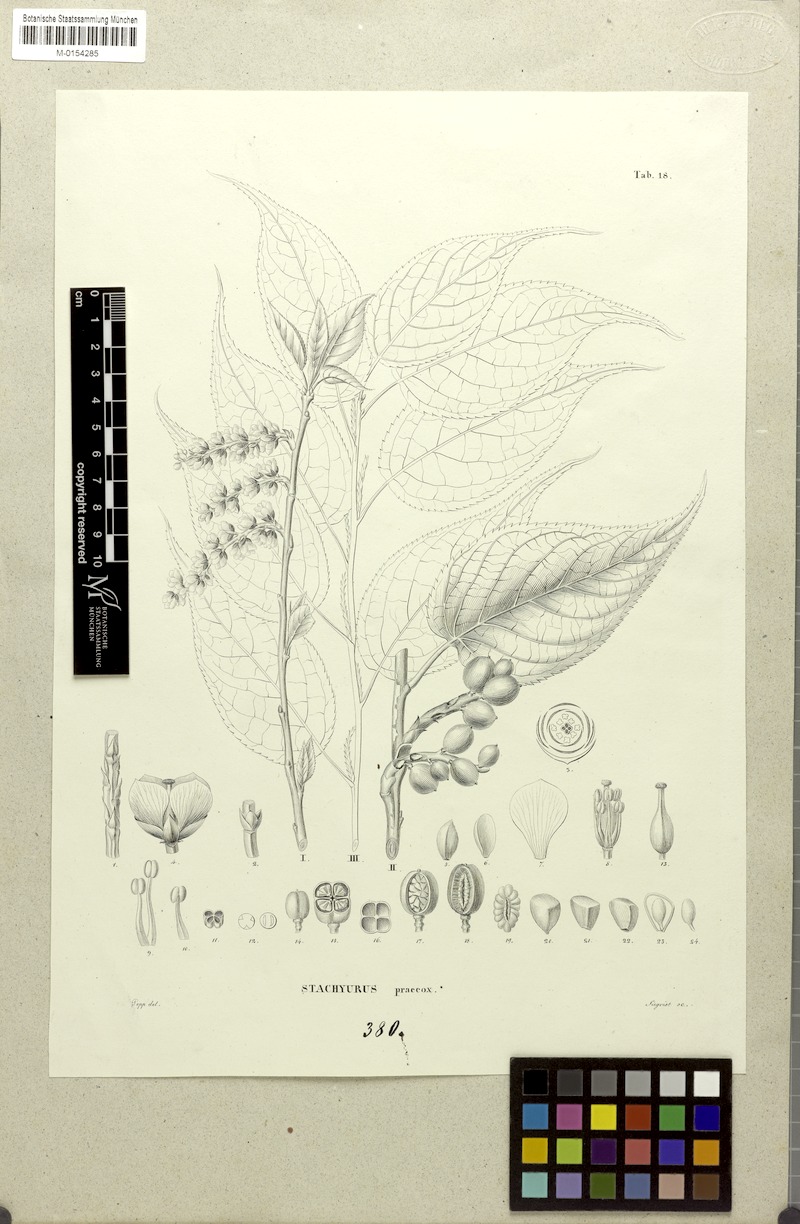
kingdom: Plantae
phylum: Tracheophyta
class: Magnoliopsida
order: Crossosomatales
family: Stachyuraceae
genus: Stachyurus
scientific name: Stachyurus praecox
